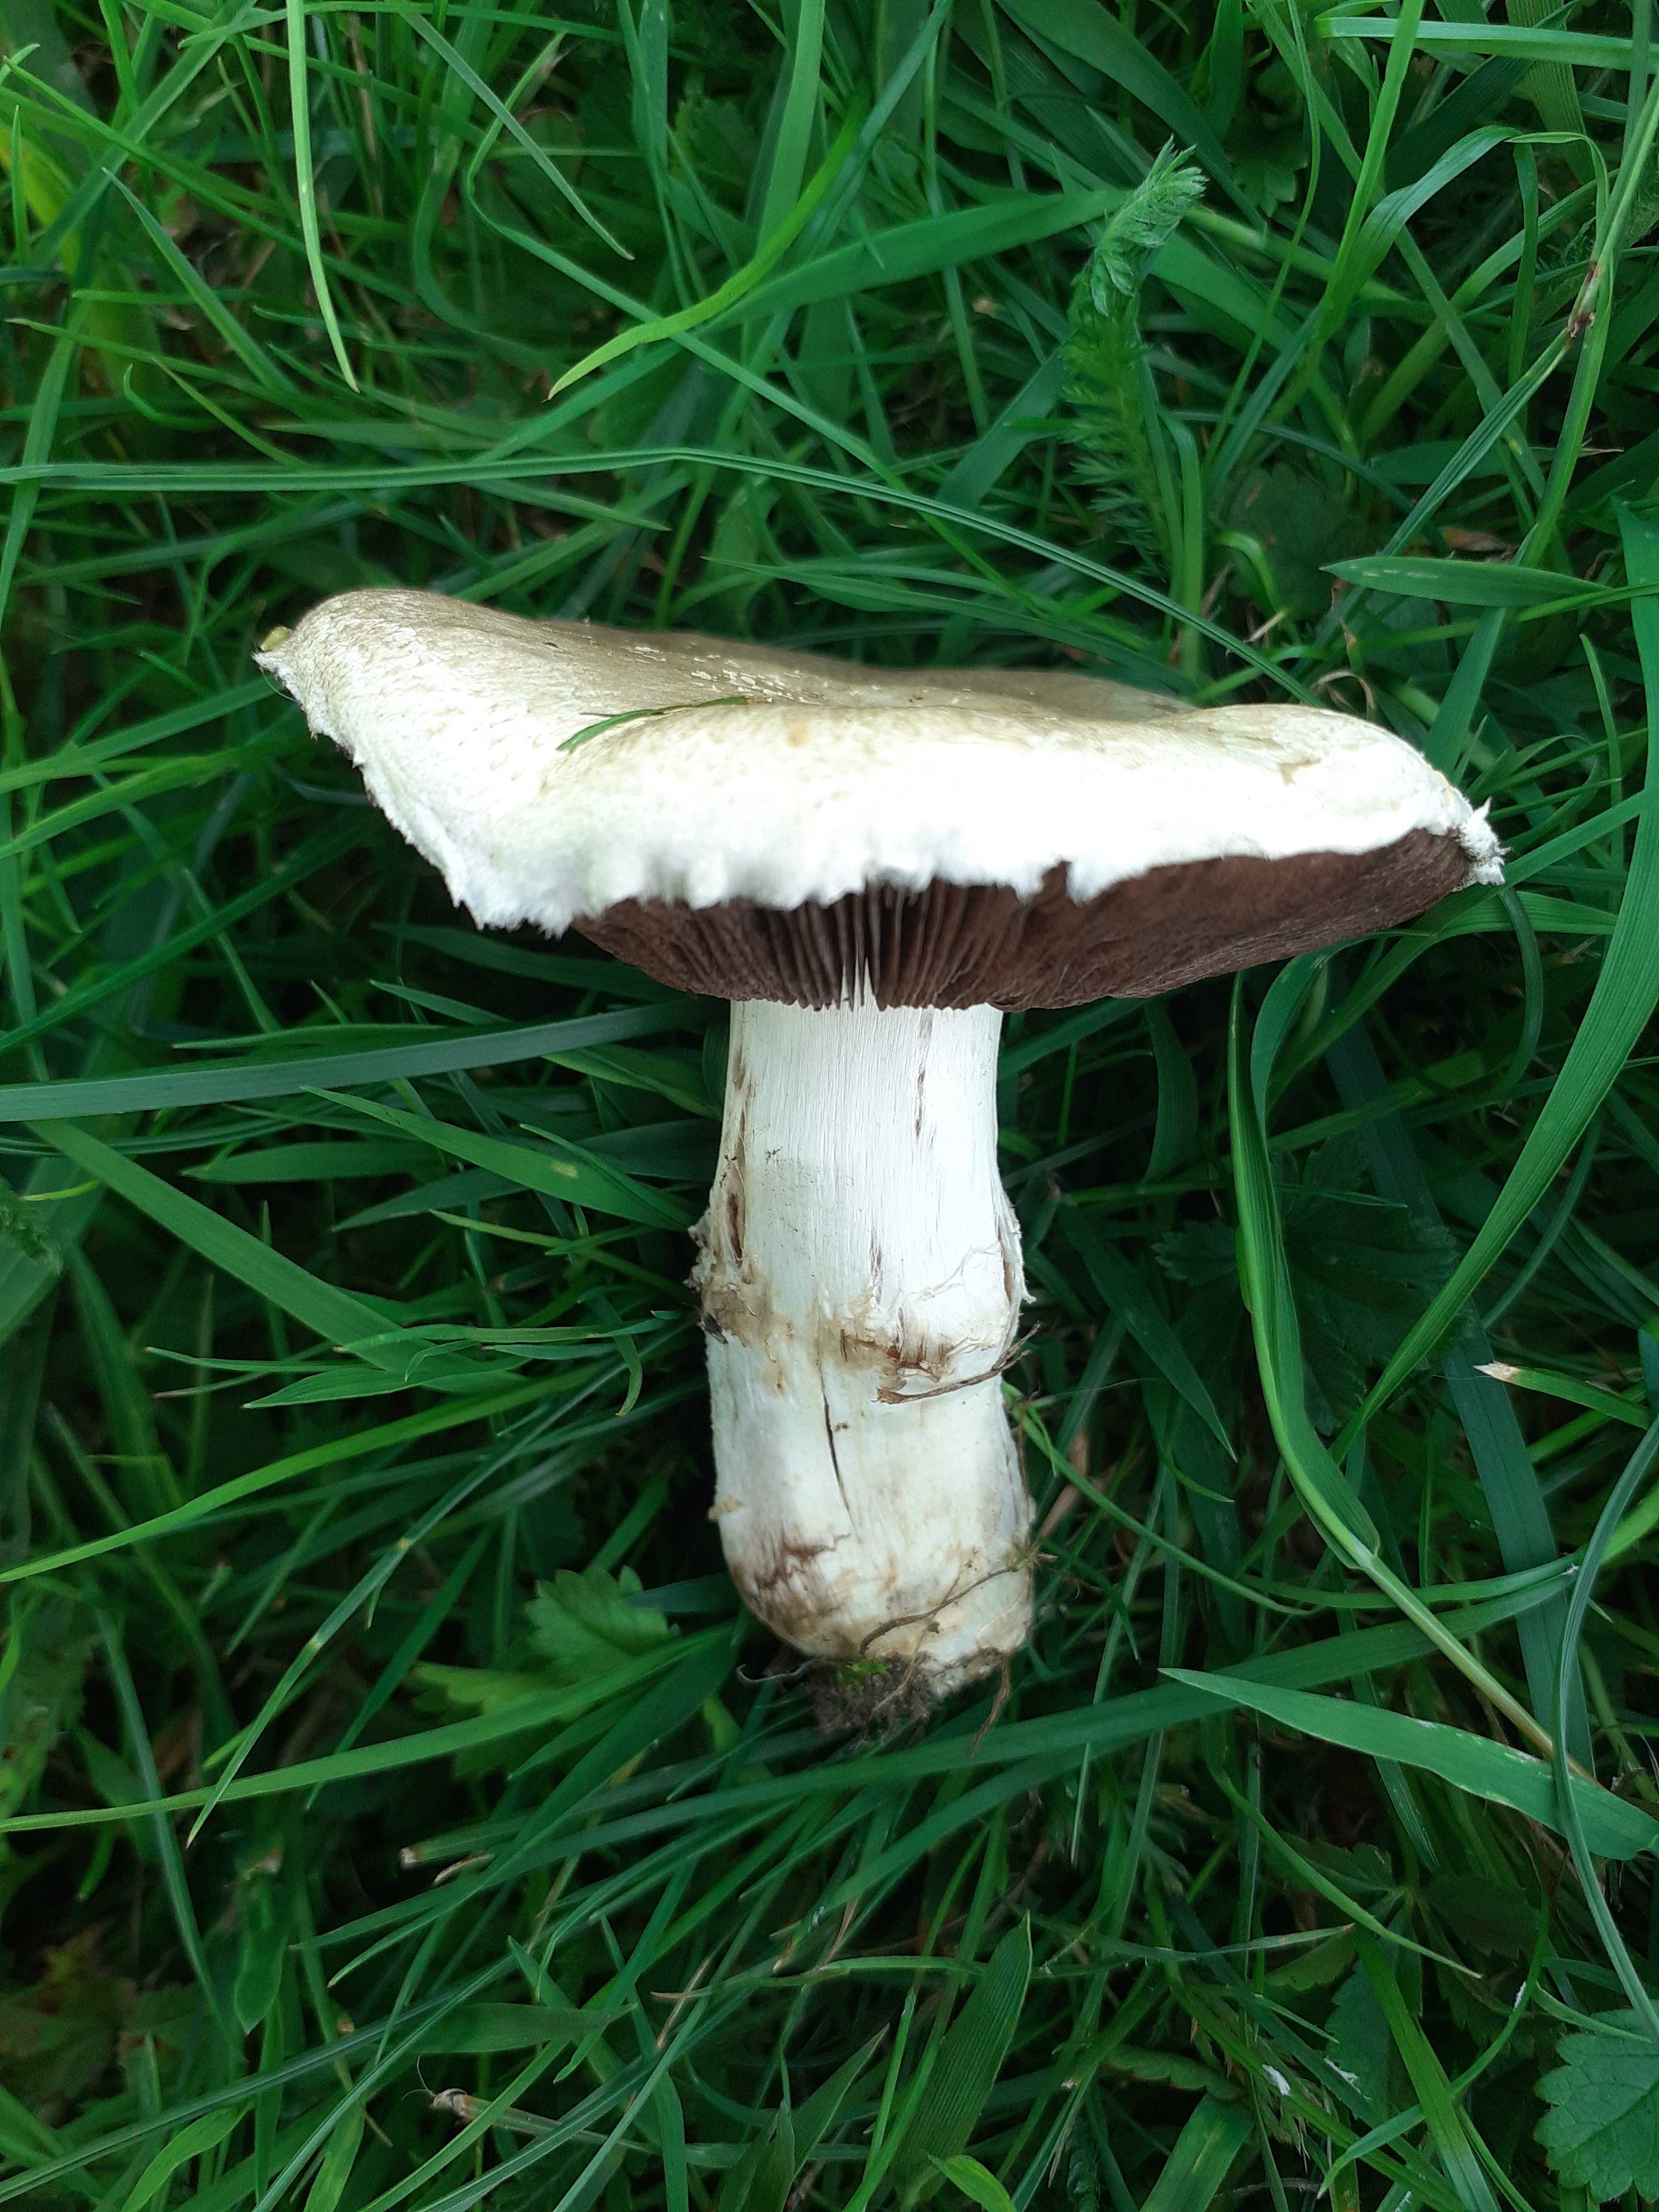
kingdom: Fungi
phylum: Basidiomycota
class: Agaricomycetes
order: Agaricales
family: Agaricaceae
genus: Agaricus
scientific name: Agaricus campestris
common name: mark-champignon
